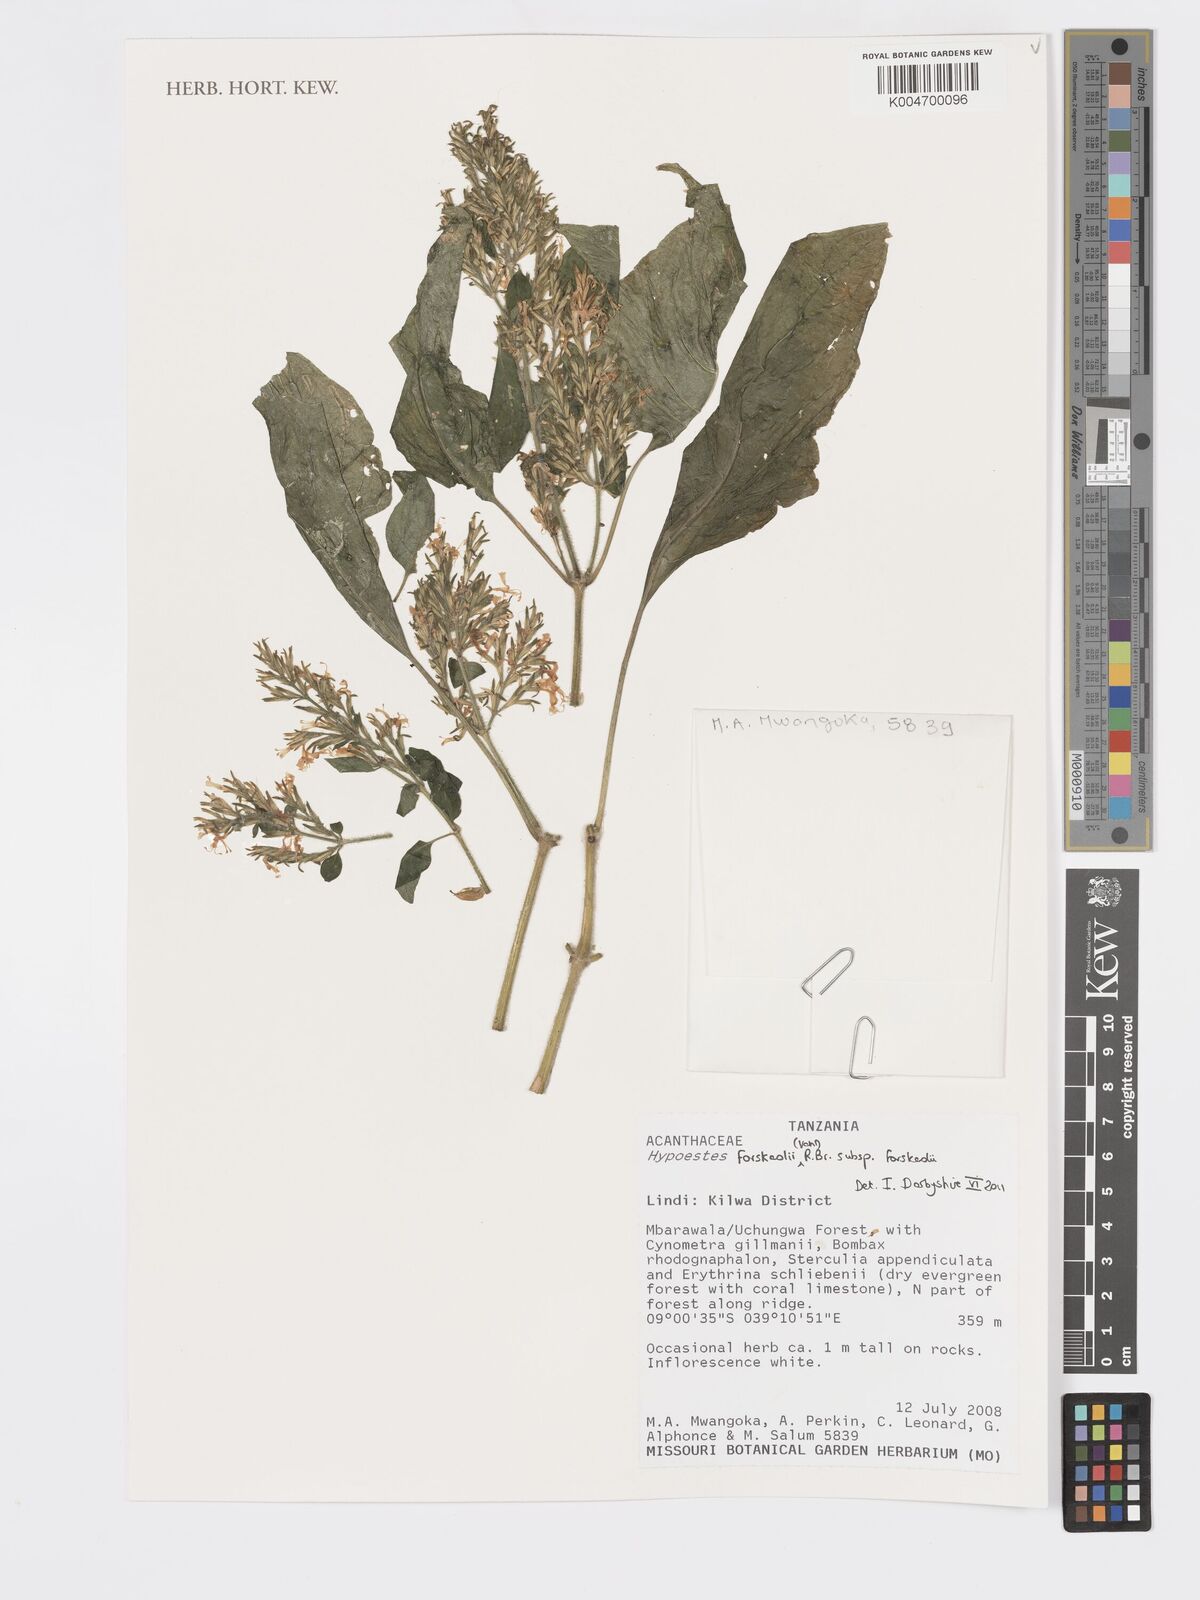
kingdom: Plantae
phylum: Tracheophyta
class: Magnoliopsida
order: Lamiales
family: Acanthaceae
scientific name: Acanthaceae
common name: Acanthaceae
